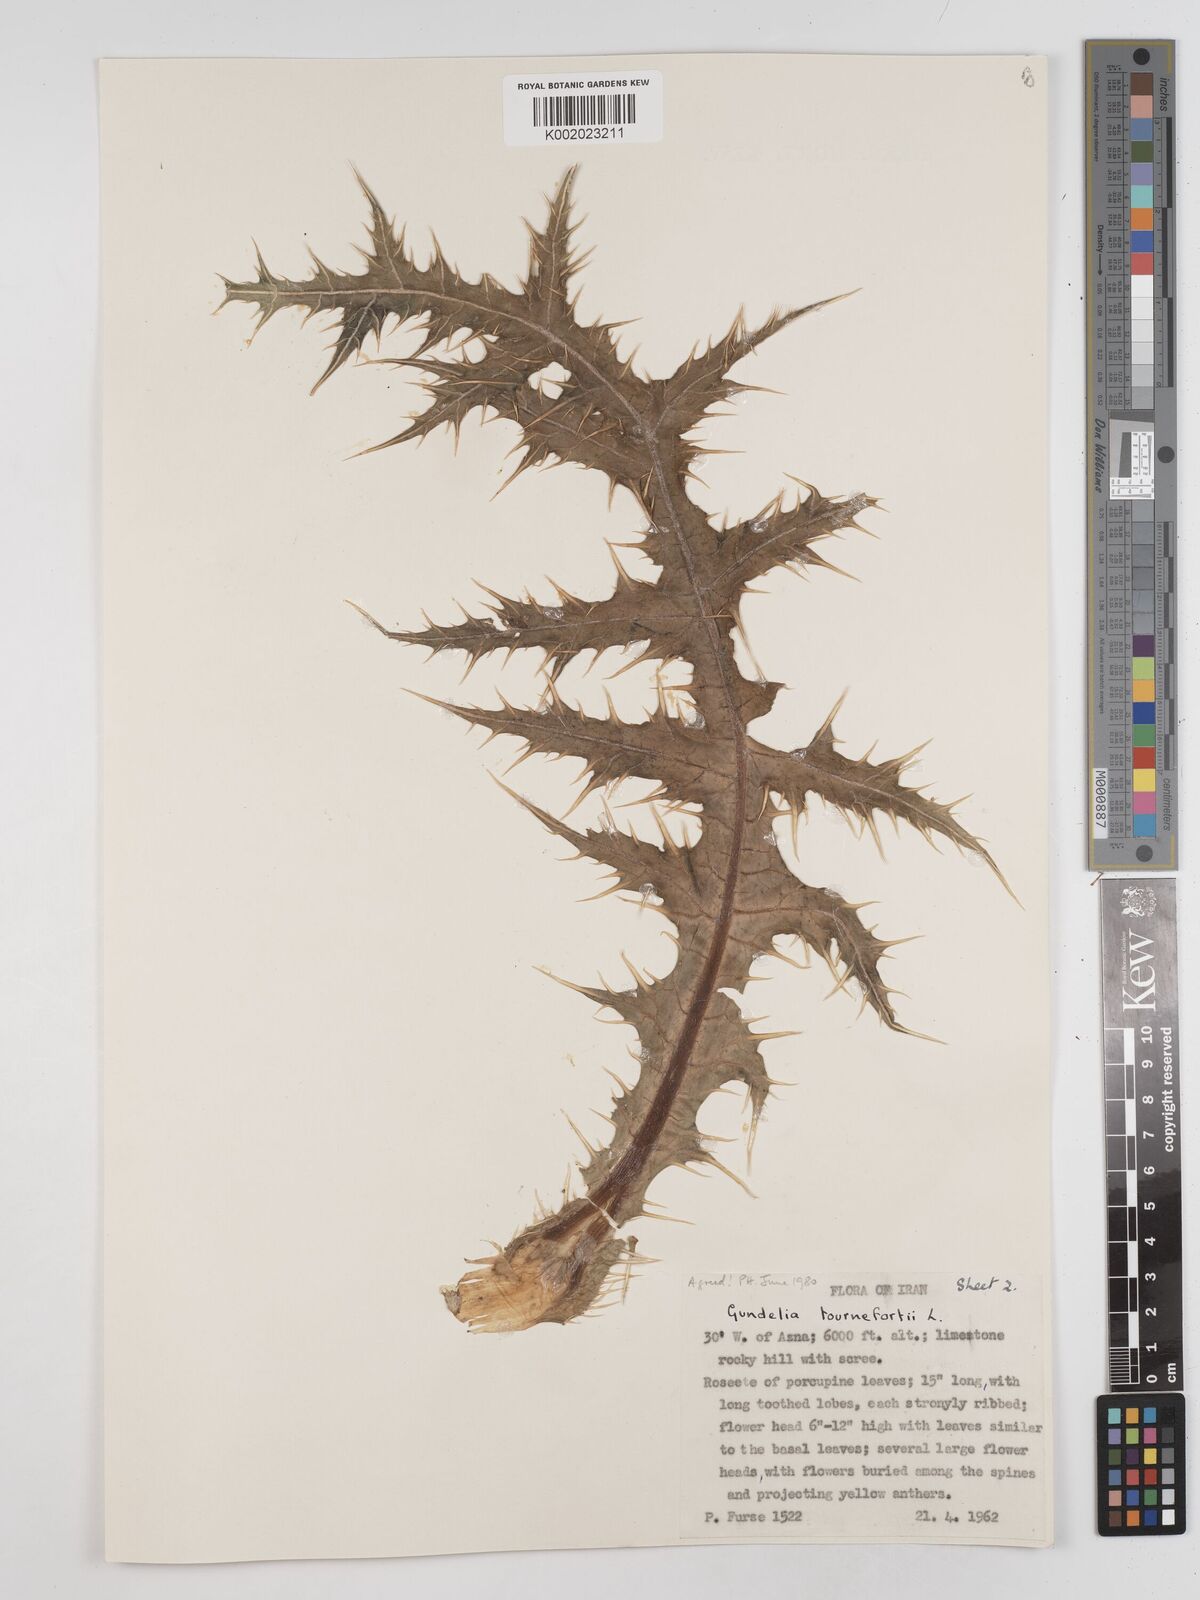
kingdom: Plantae
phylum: Tracheophyta
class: Magnoliopsida
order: Asterales
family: Asteraceae
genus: Gundelia
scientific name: Gundelia tournefortii
